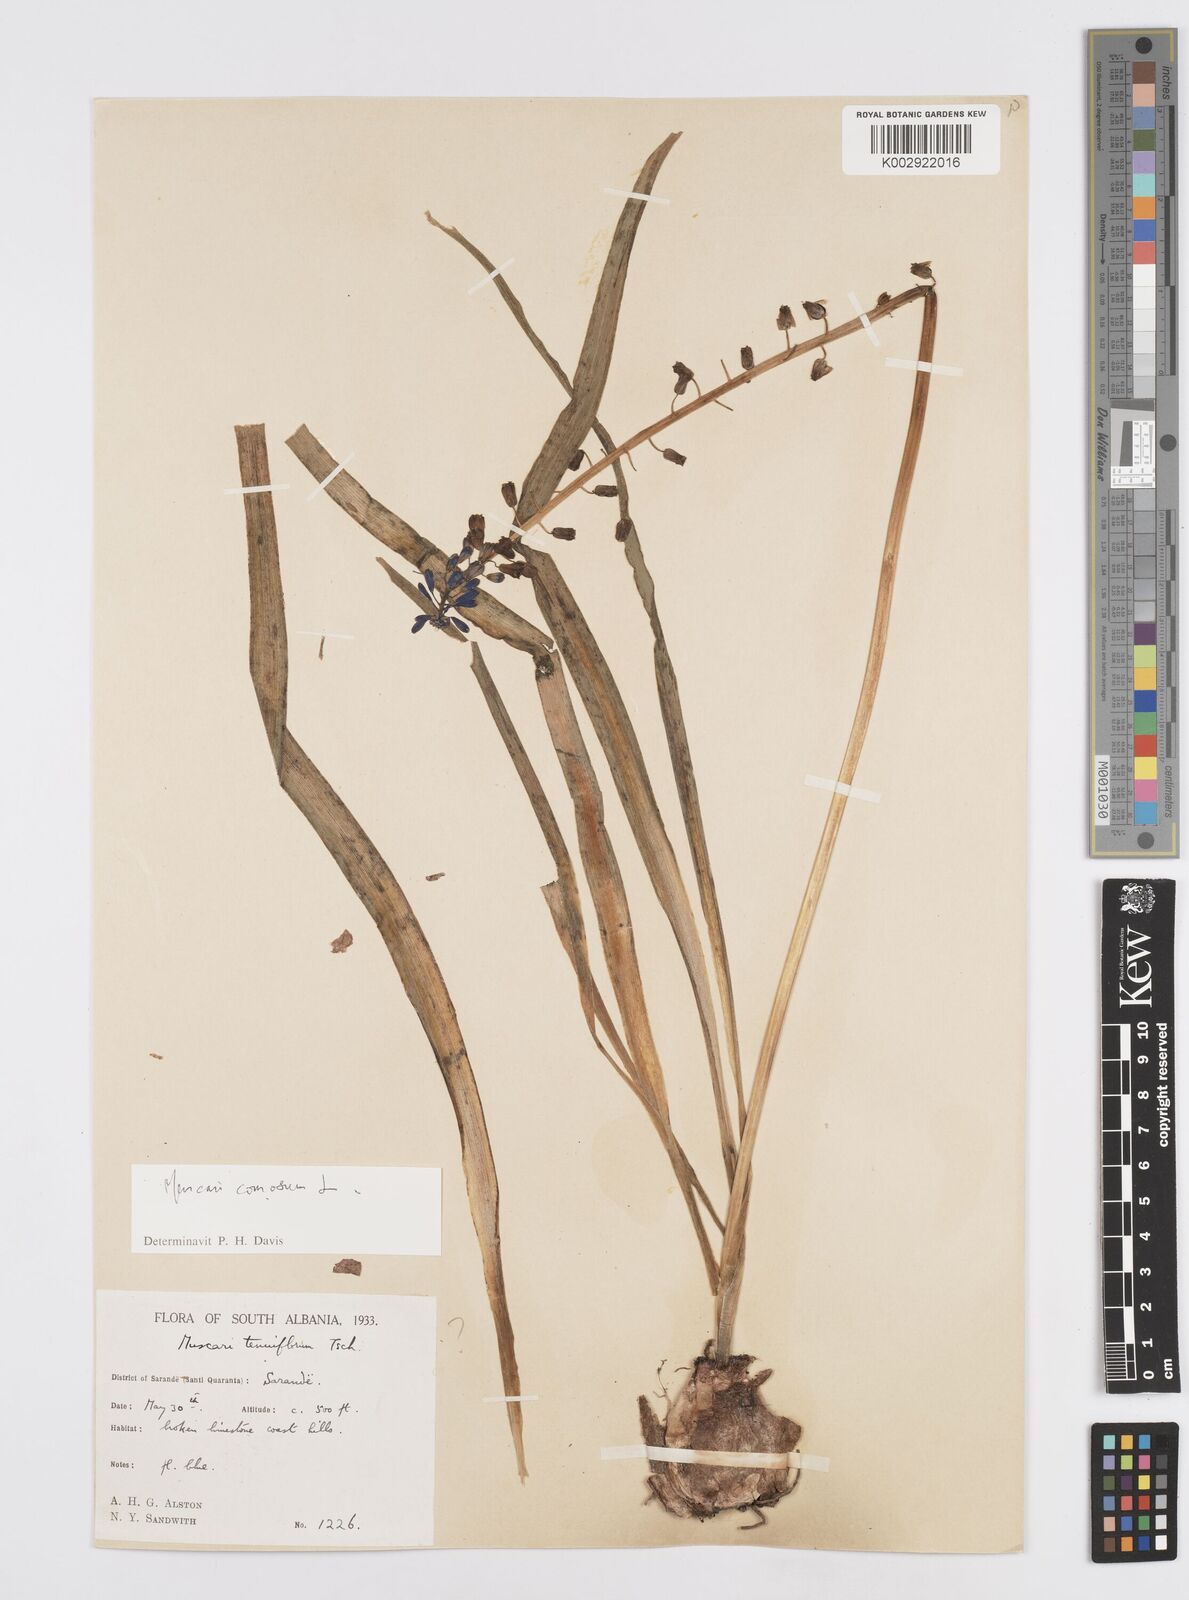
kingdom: Plantae
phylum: Tracheophyta
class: Liliopsida
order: Asparagales
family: Asparagaceae
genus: Muscari
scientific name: Muscari tenuiflorum
